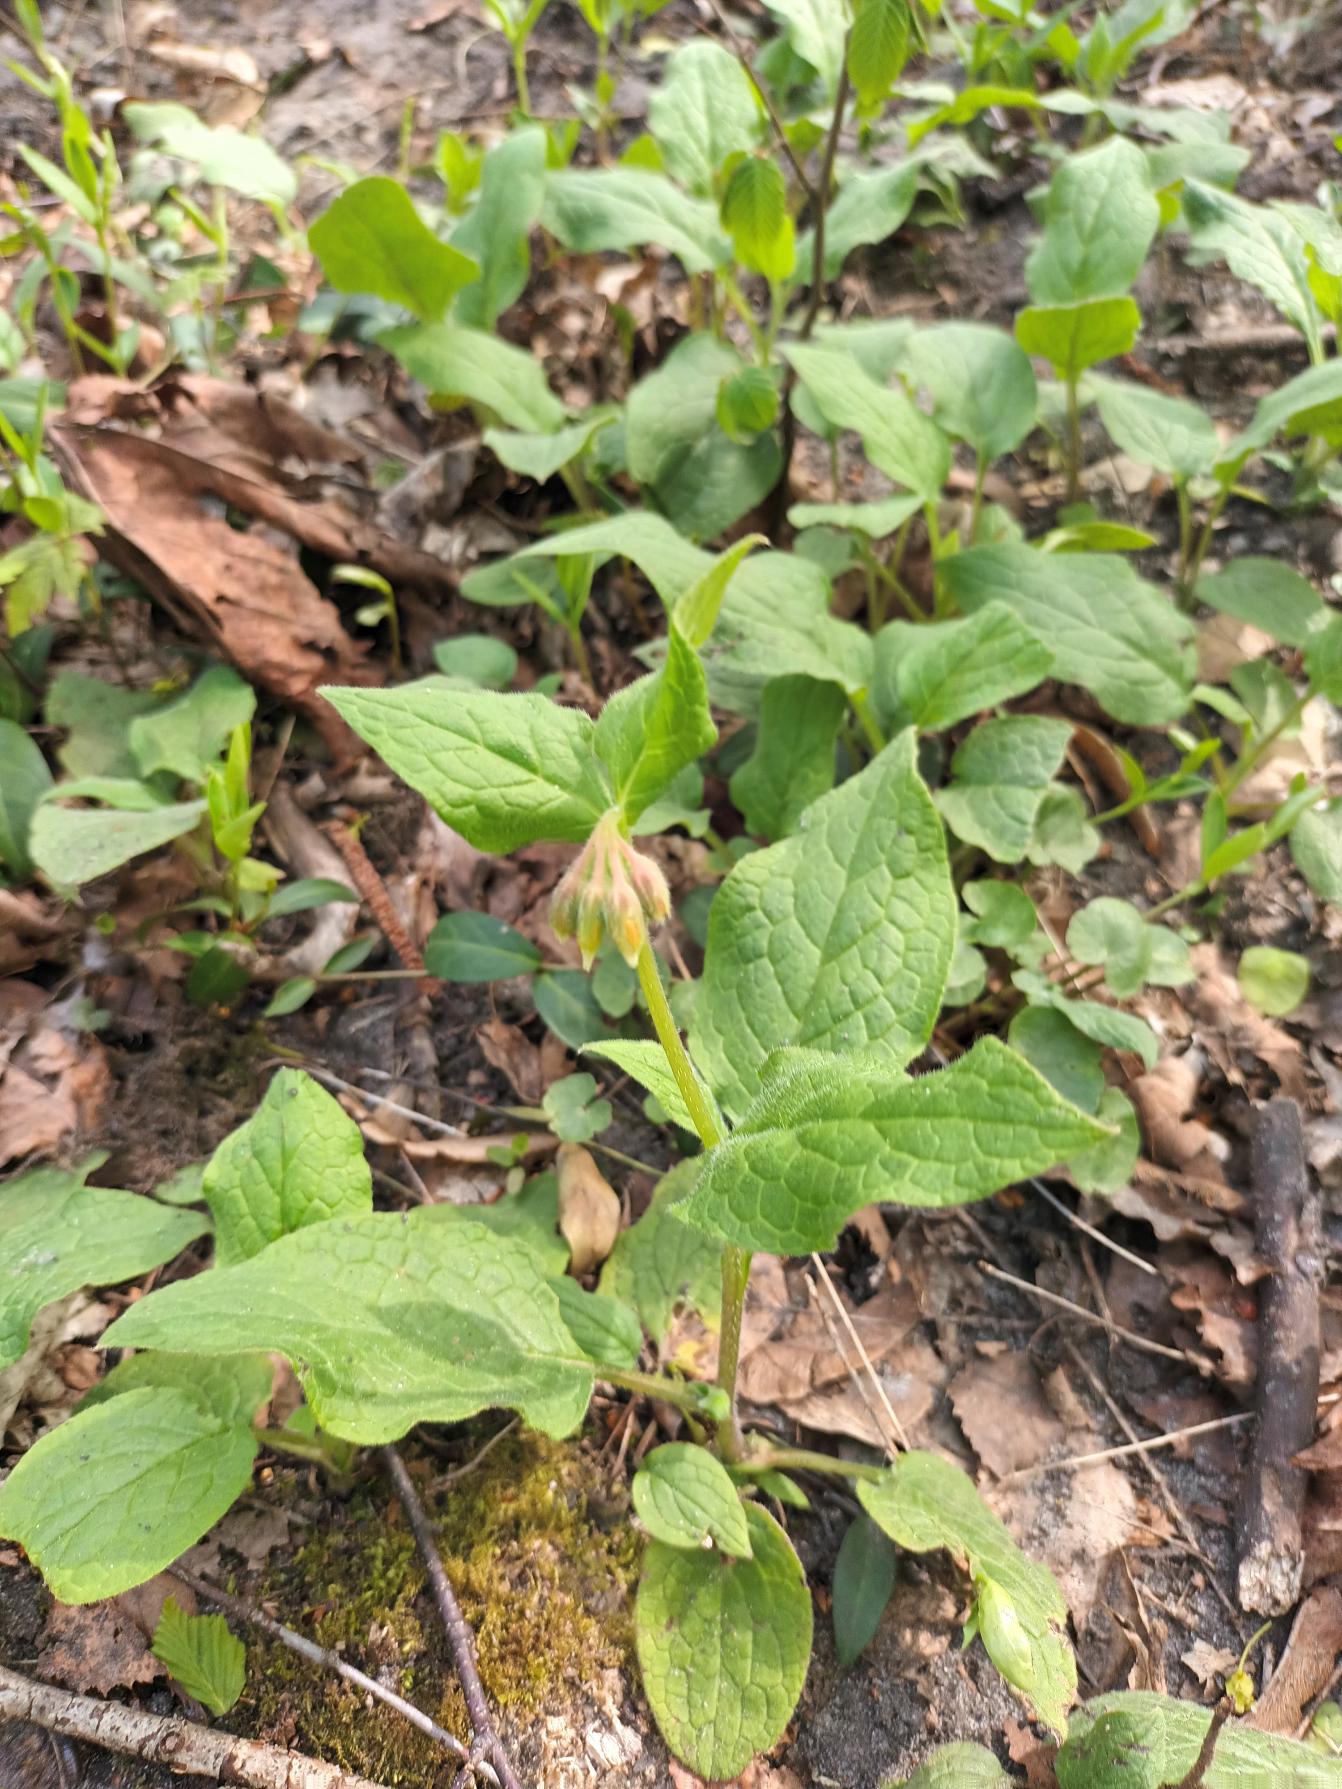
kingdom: Plantae
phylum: Tracheophyta
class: Magnoliopsida
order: Boraginales
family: Boraginaceae
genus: Symphytum
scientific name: Symphytum bulbosum
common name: Bleggul kulsukker
